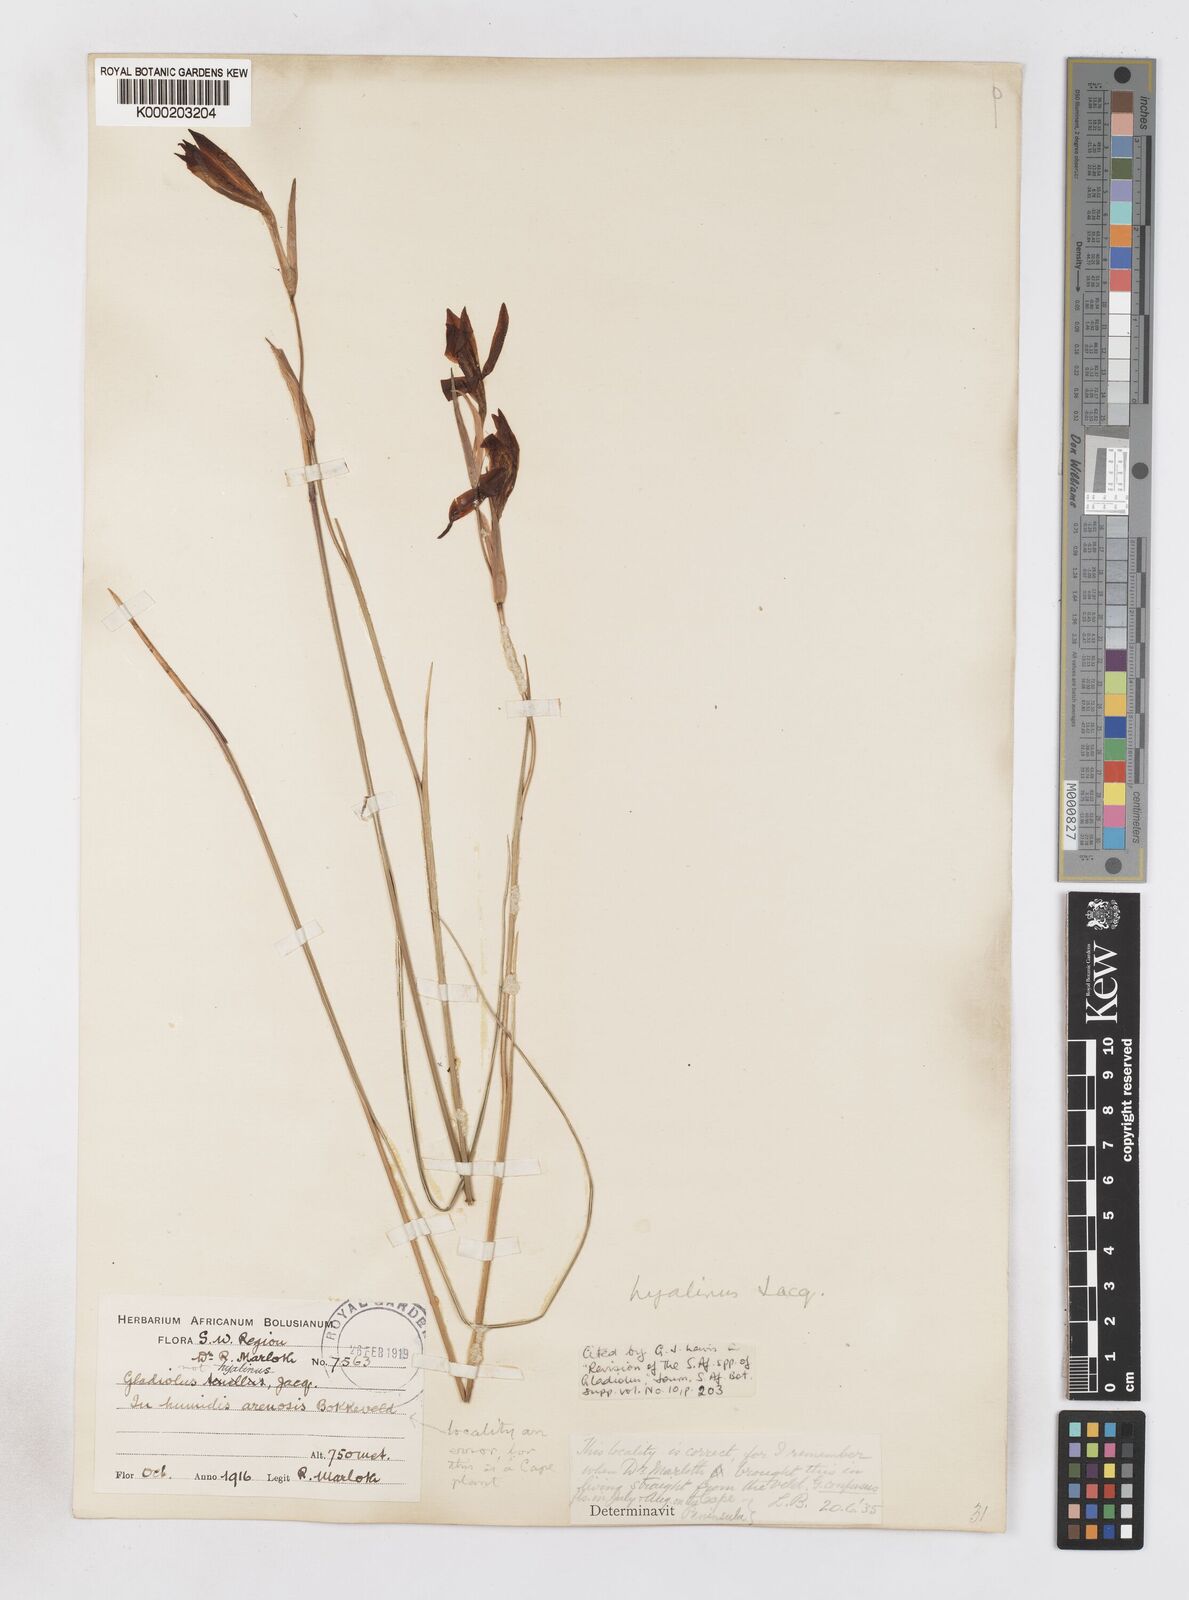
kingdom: Plantae
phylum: Tracheophyta
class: Liliopsida
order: Asparagales
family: Iridaceae
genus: Gladiolus
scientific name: Gladiolus hyalinus
